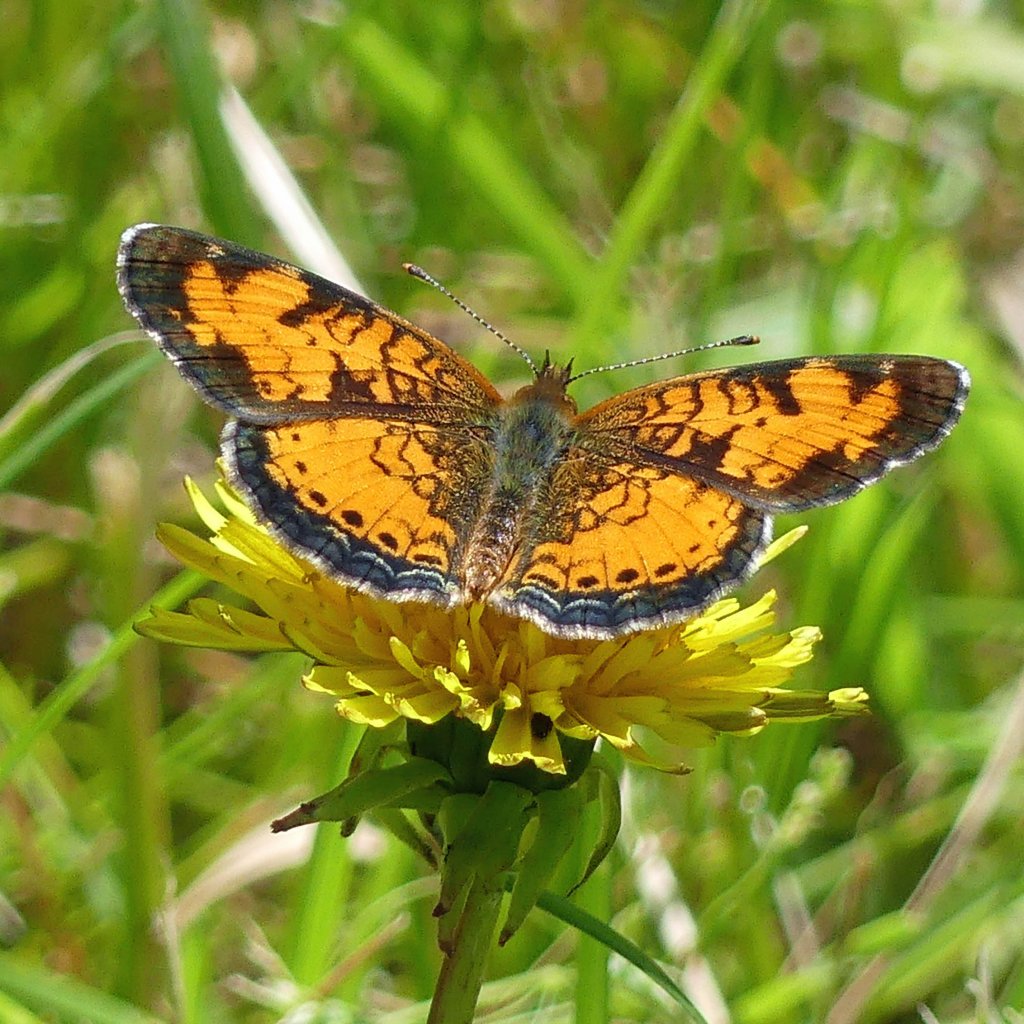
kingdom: Animalia
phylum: Arthropoda
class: Insecta
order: Lepidoptera
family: Nymphalidae
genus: Phyciodes
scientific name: Phyciodes tharos
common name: Northern Crescent
